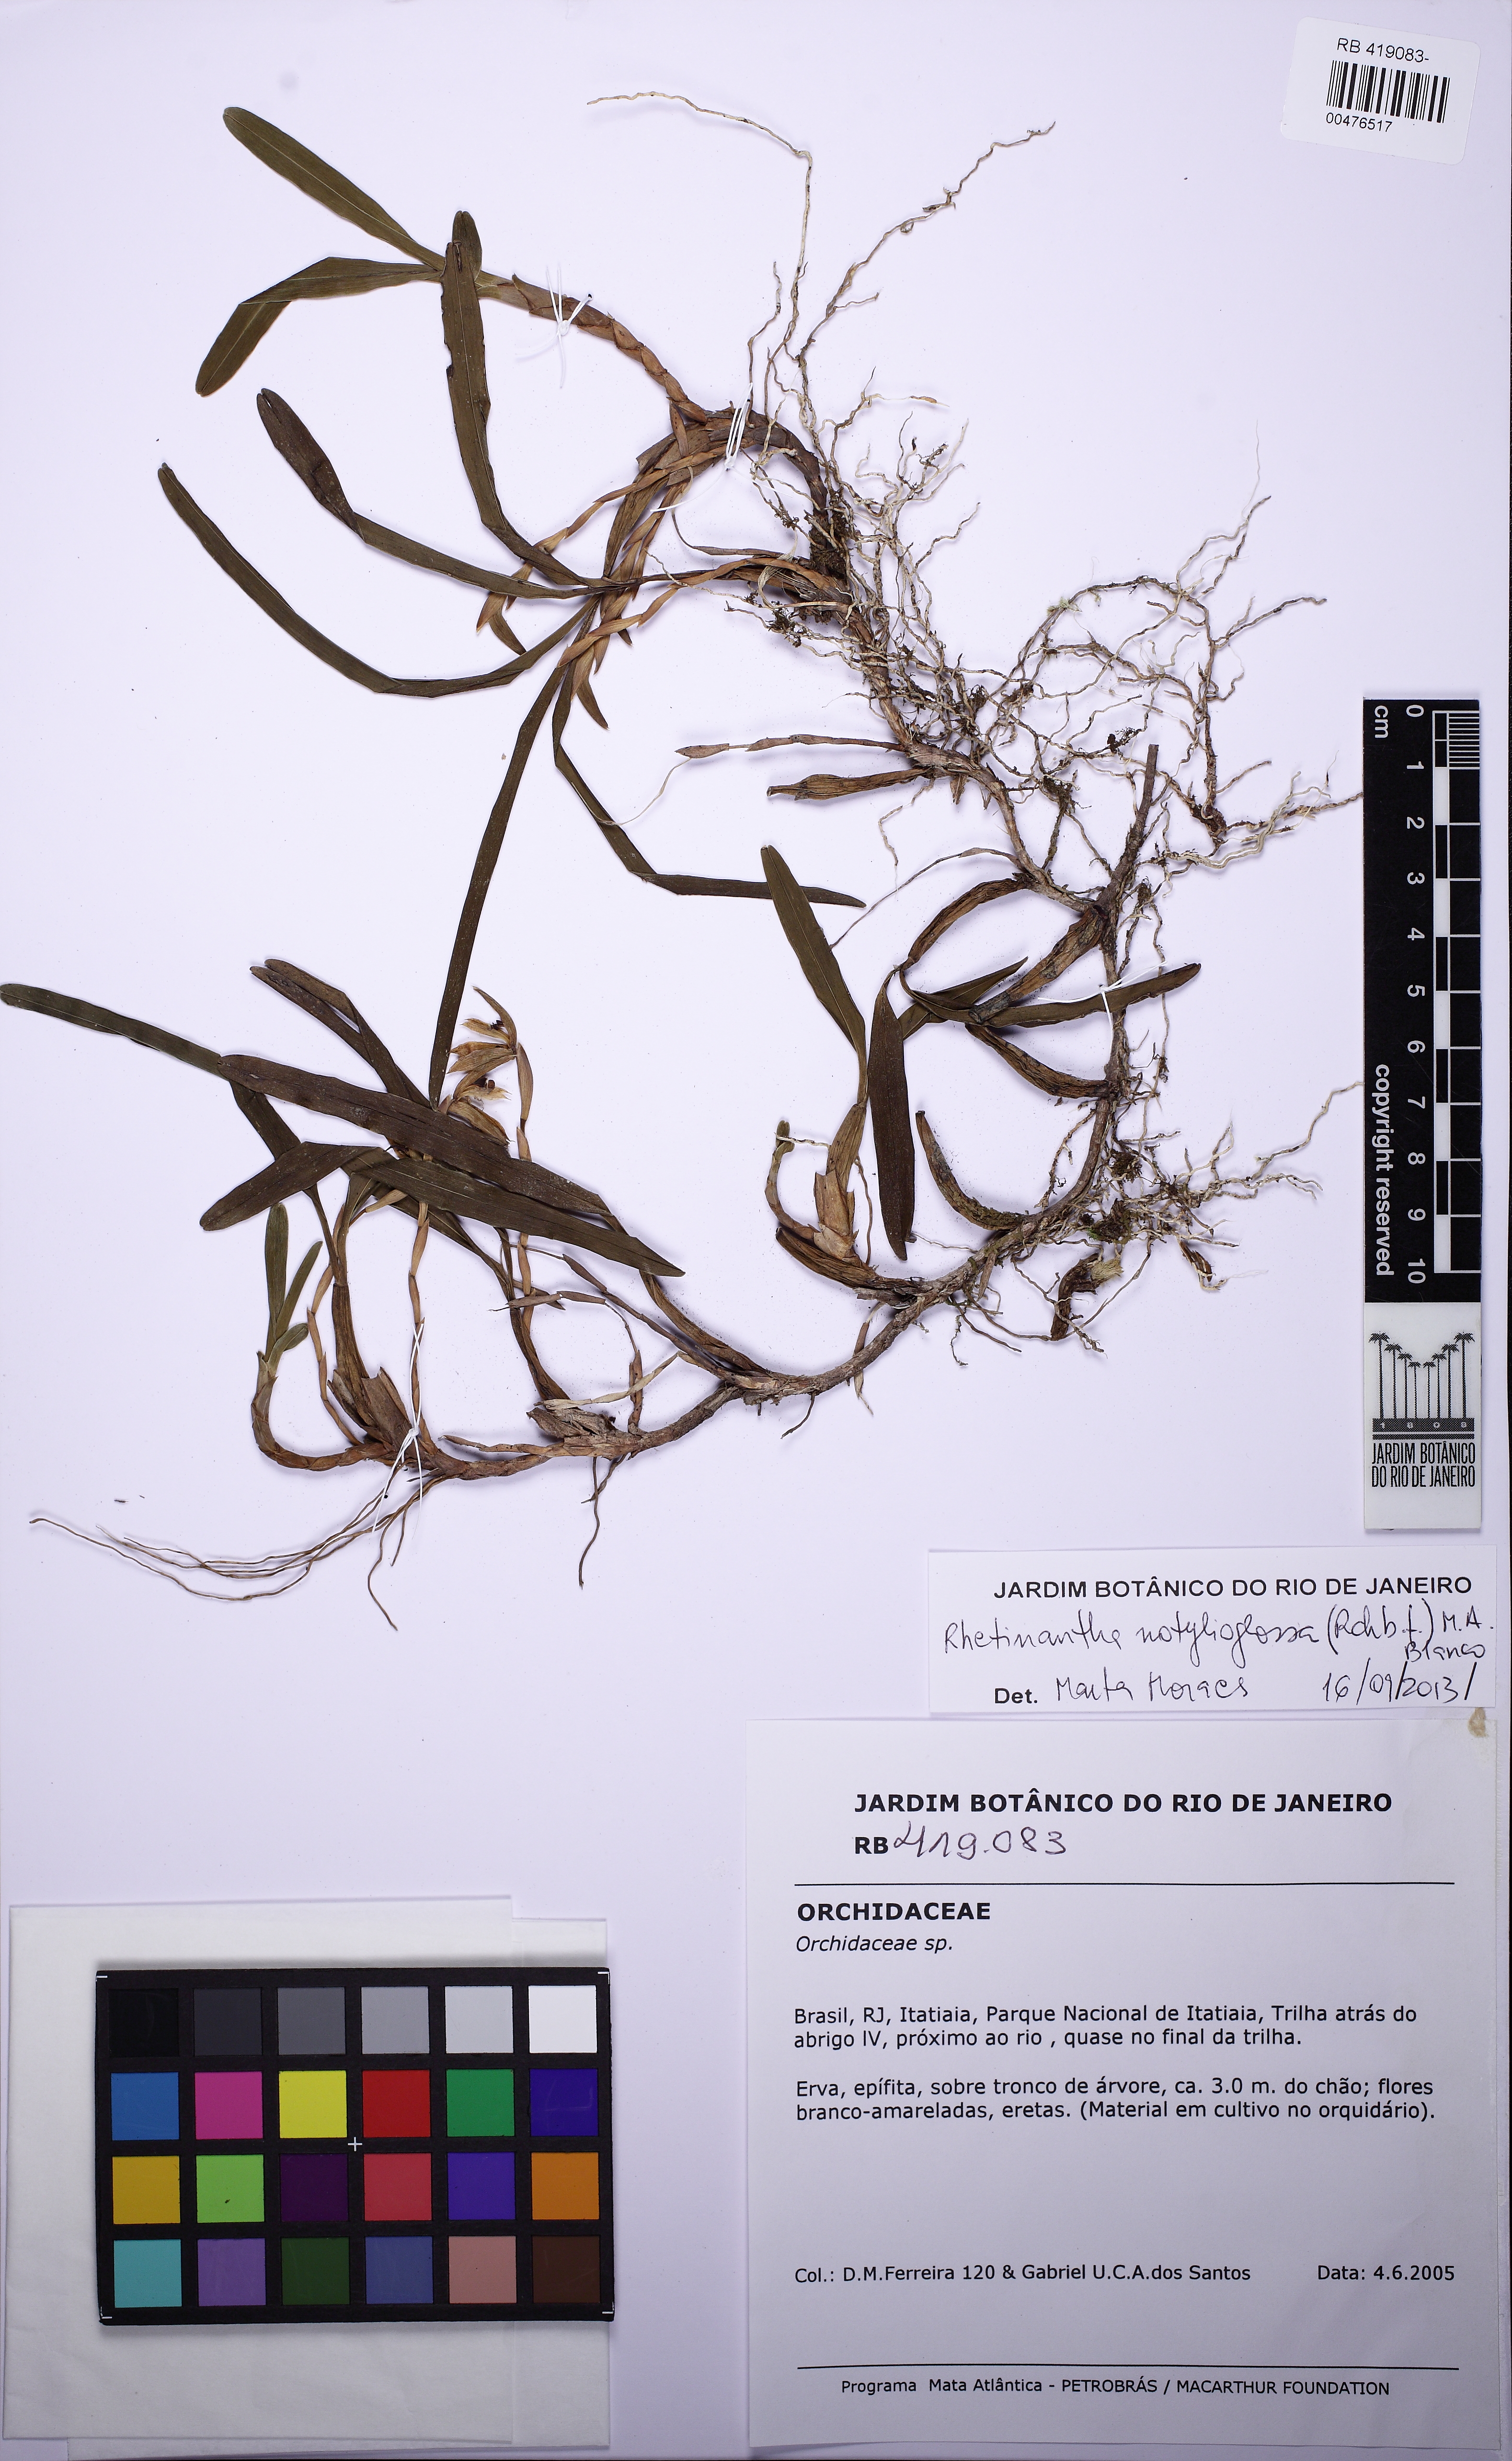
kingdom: Plantae
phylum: Tracheophyta
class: Liliopsida
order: Asparagales
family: Orchidaceae
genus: Maxillaria
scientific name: Maxillaria notylioglossa
